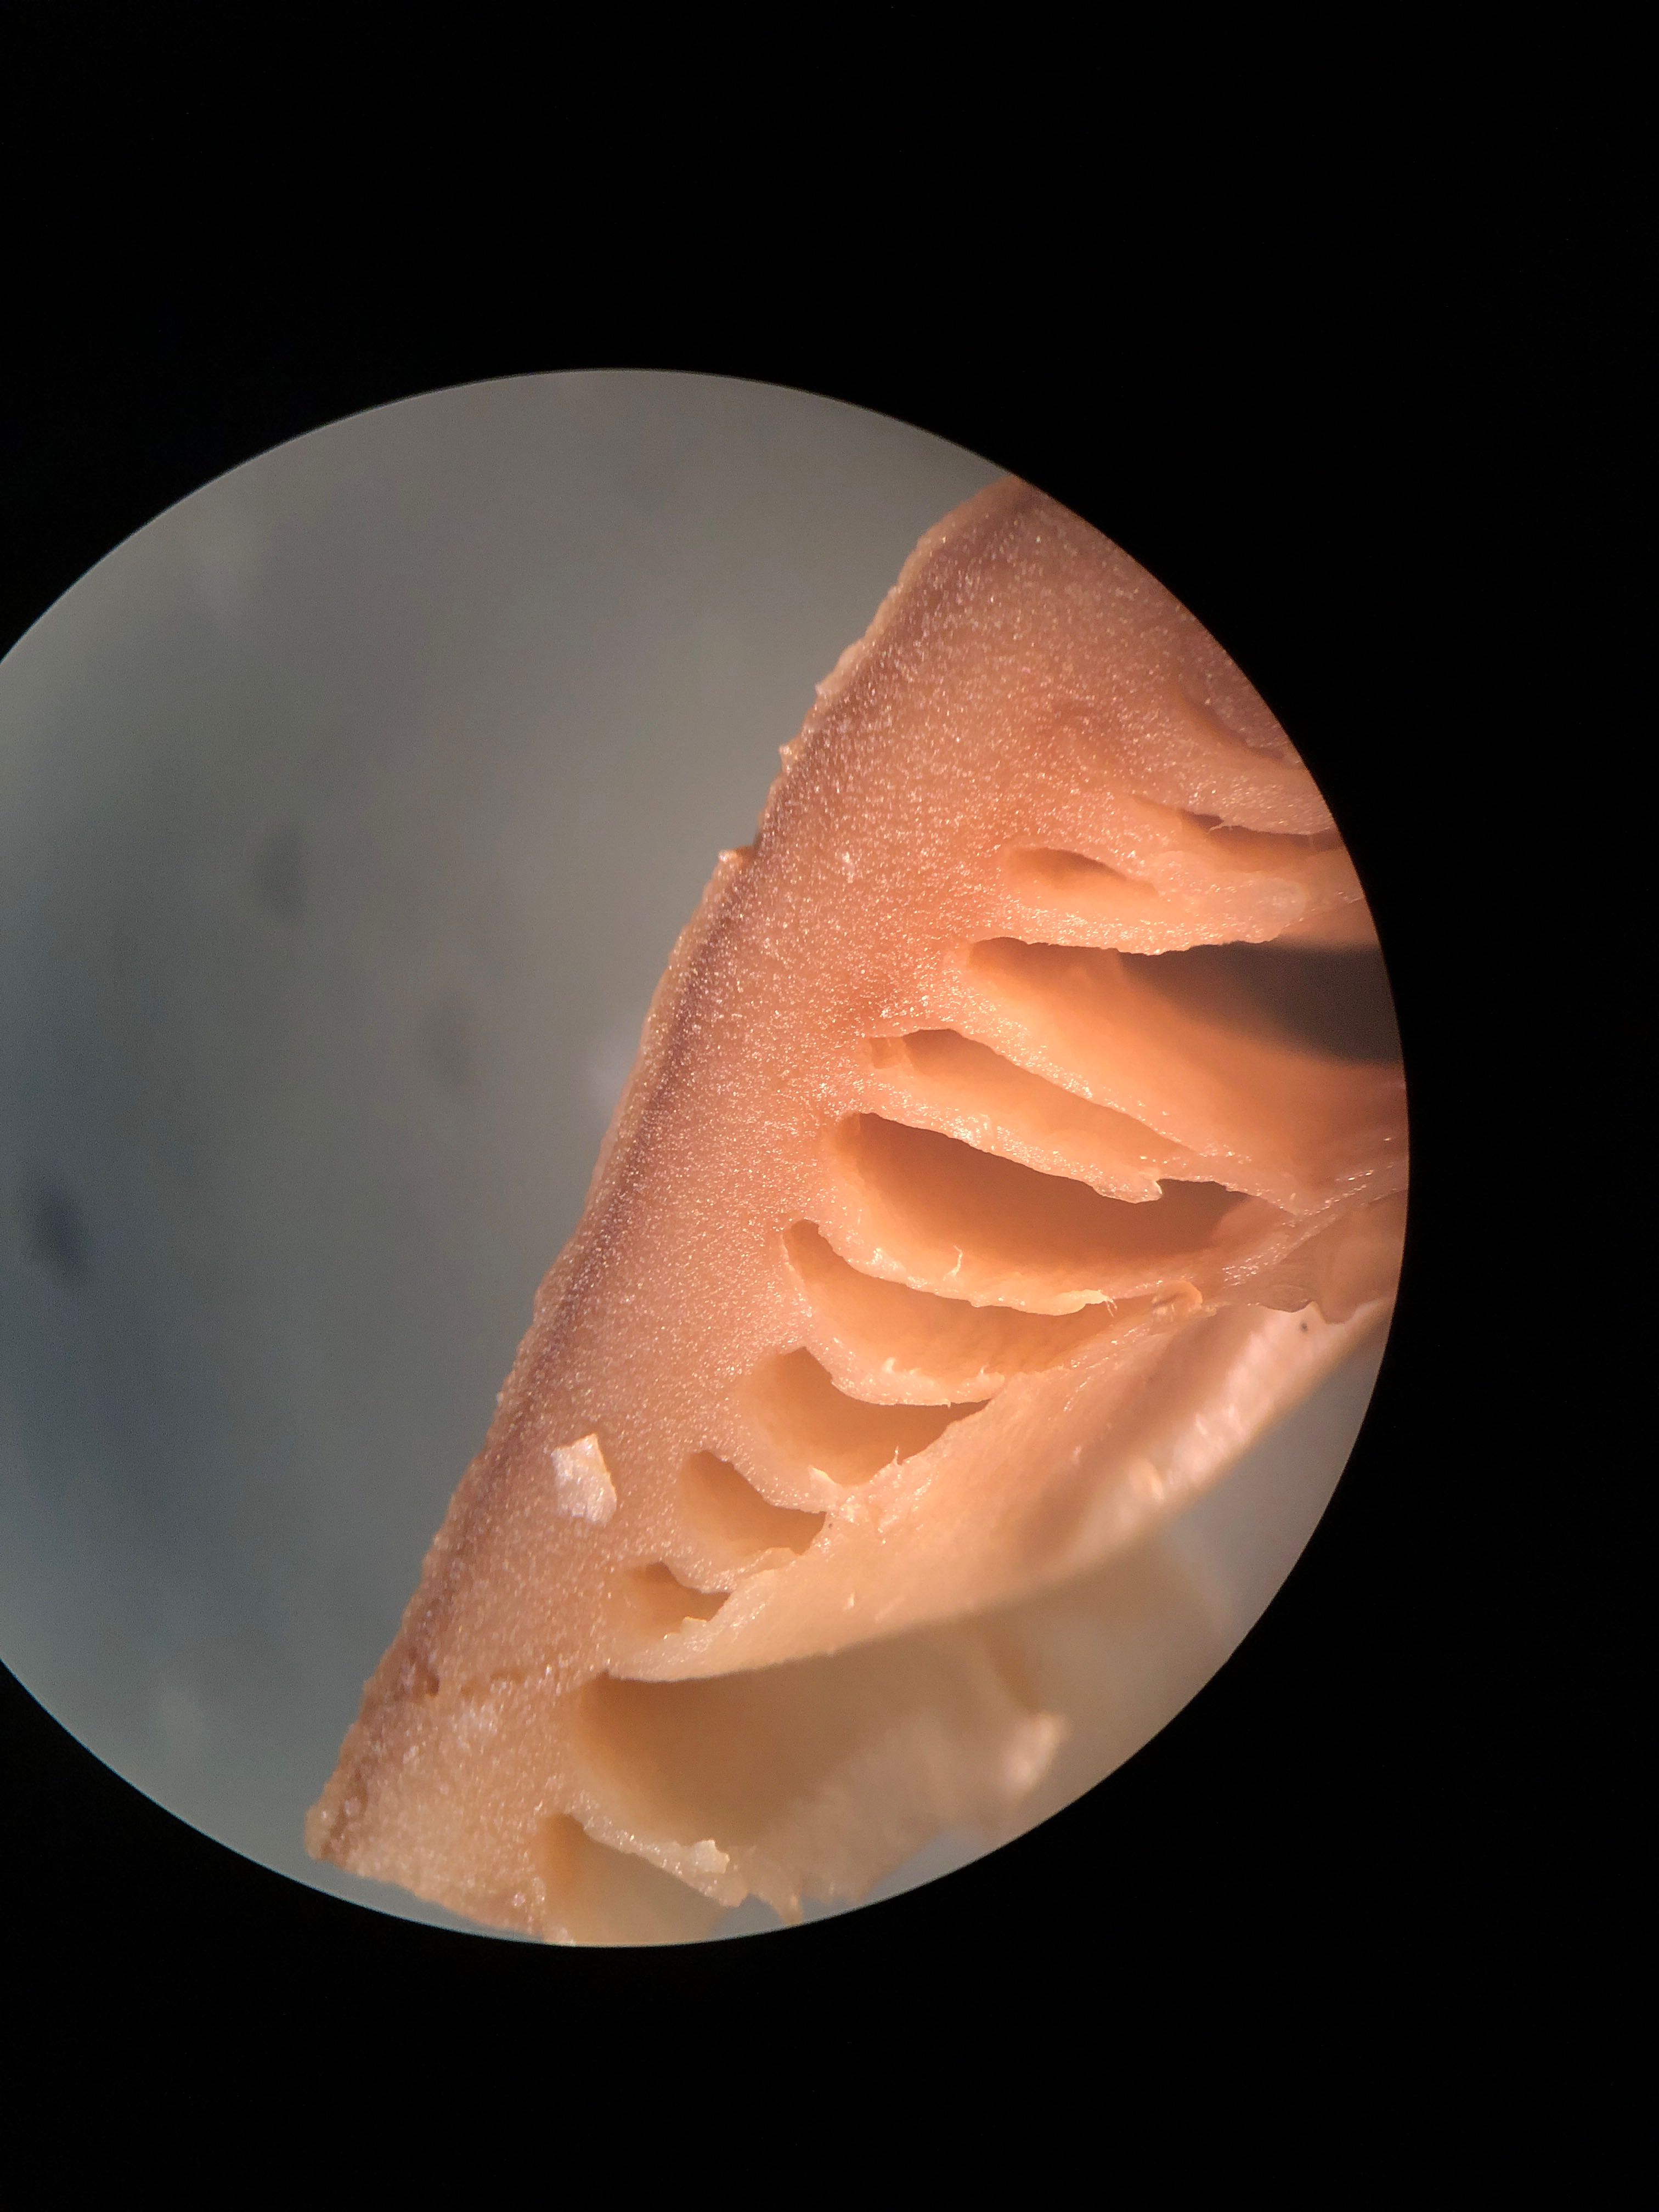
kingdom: Fungi
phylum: Basidiomycota
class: Agaricomycetes
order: Russulales
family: Auriscalpiaceae
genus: Lentinellus
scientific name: Lentinellus ursinus
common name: børstehåret savbladhat
